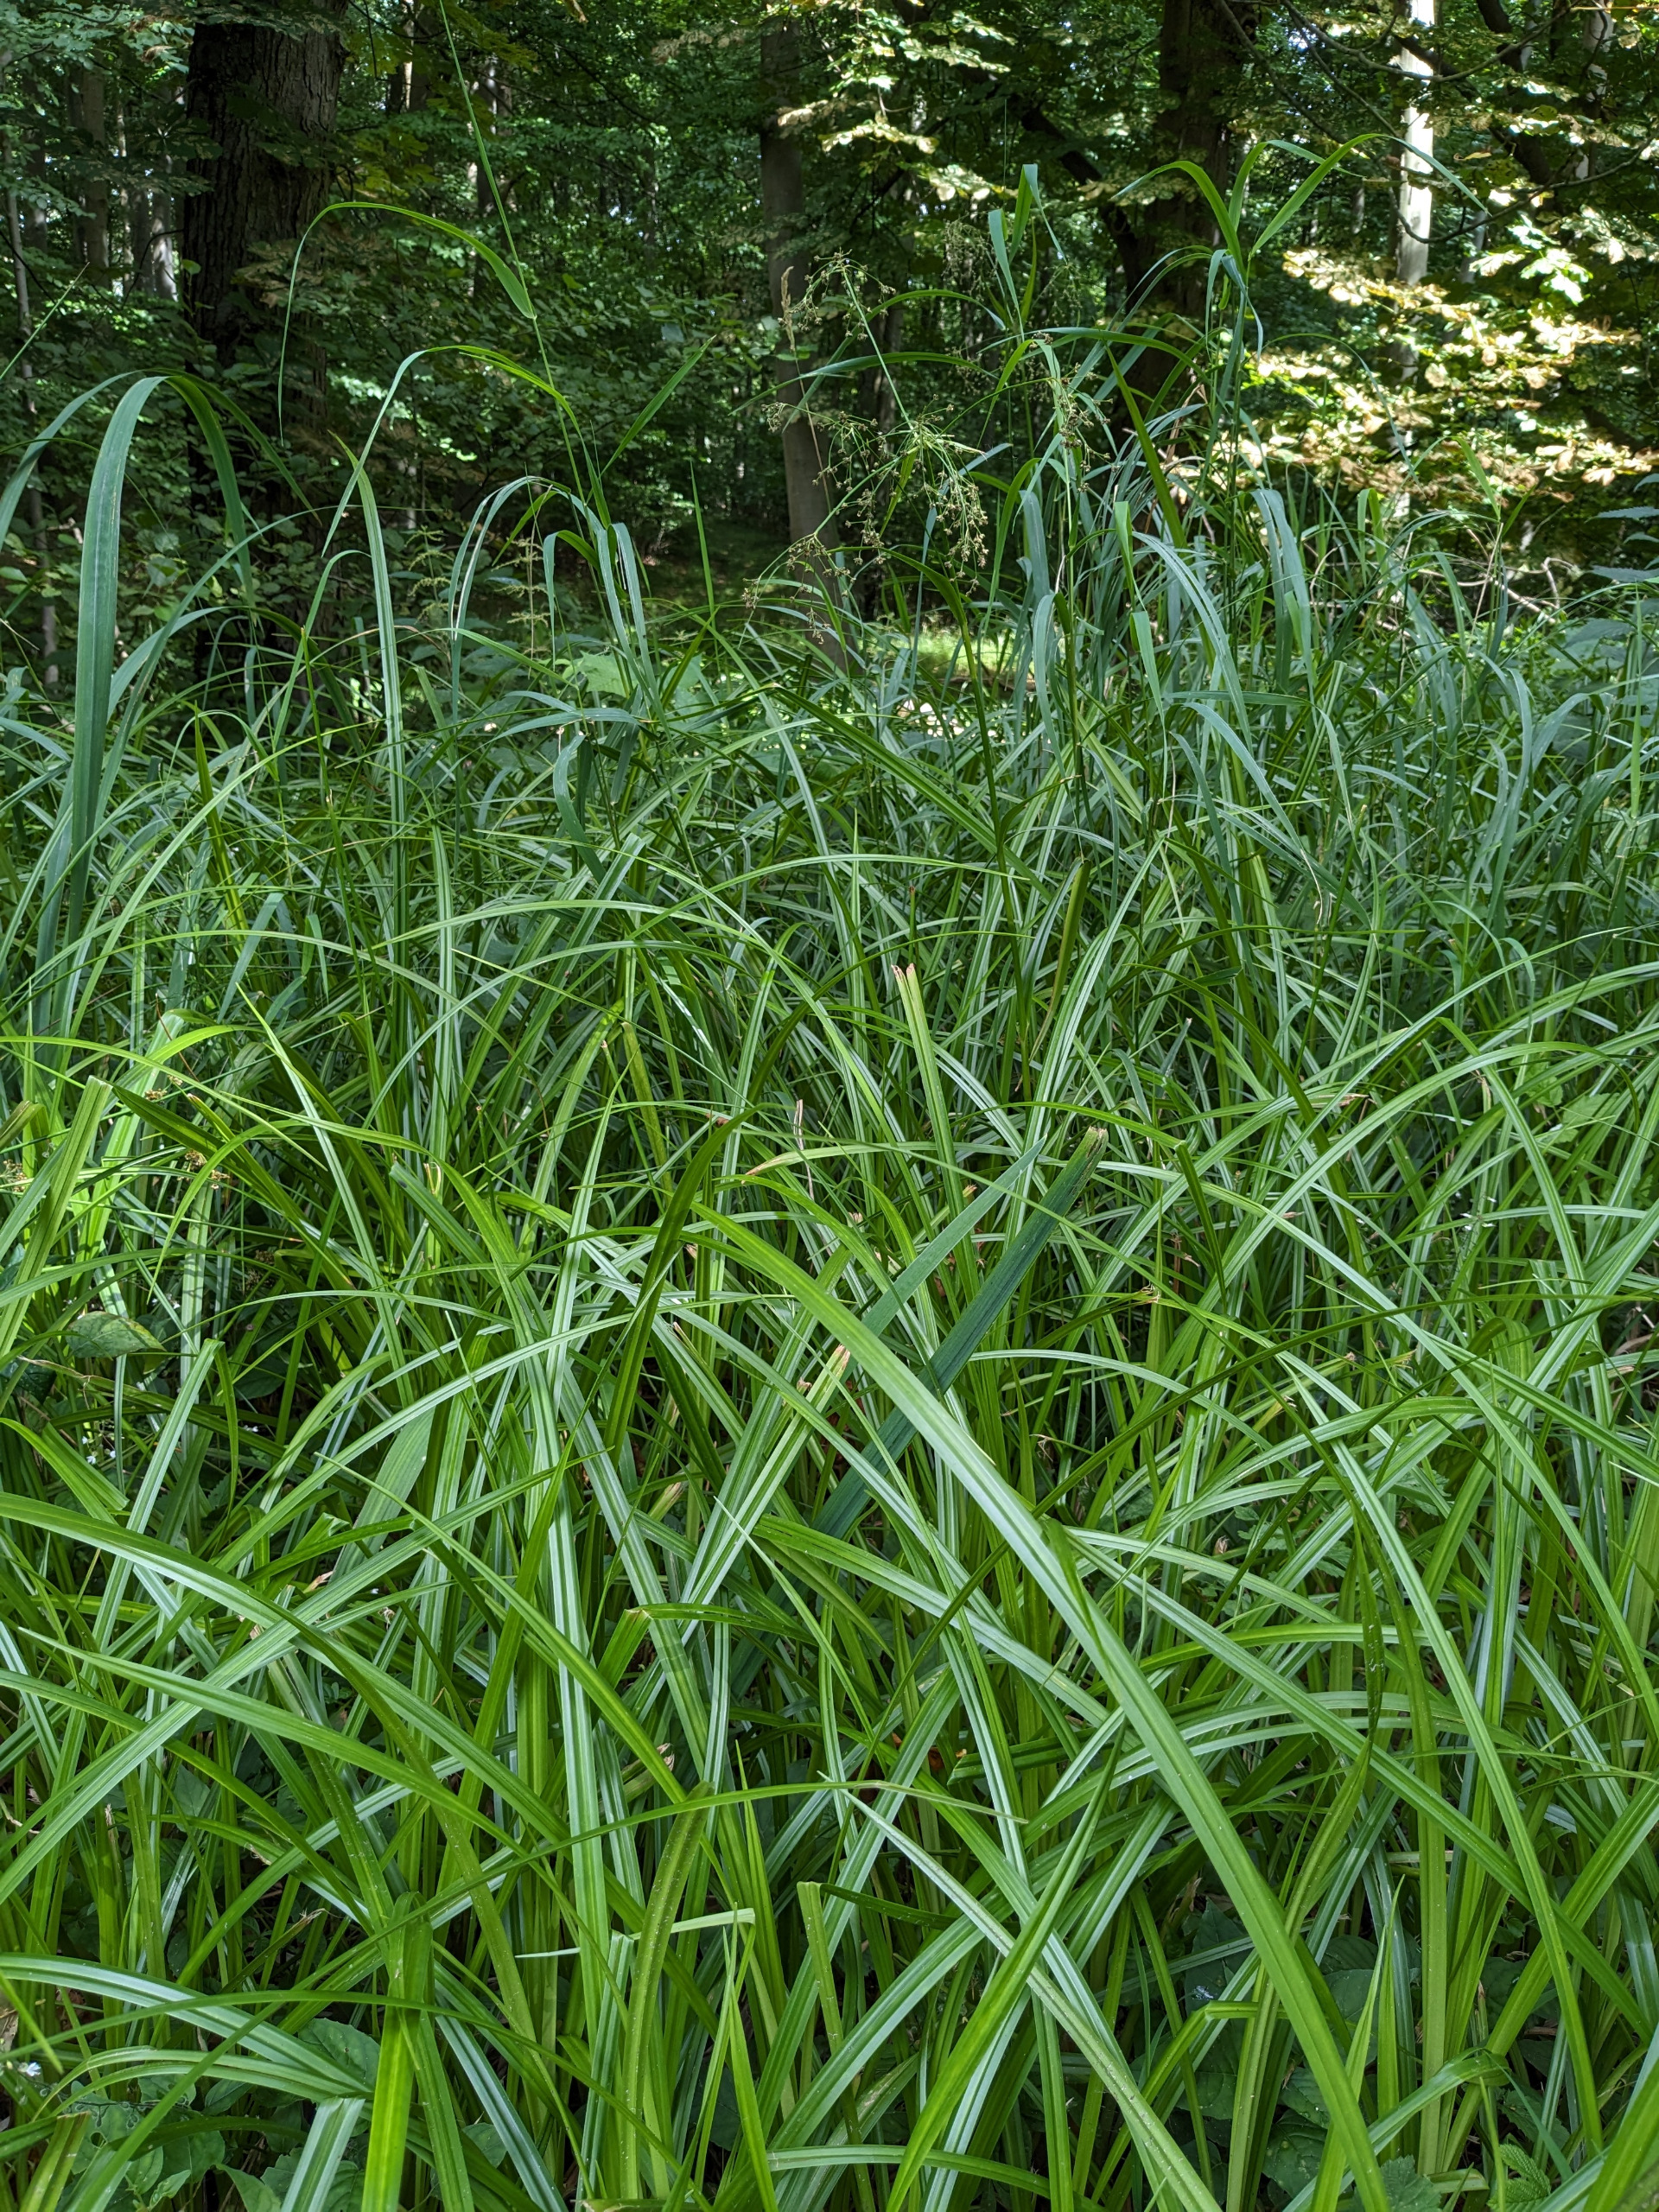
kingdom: Plantae
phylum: Tracheophyta
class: Liliopsida
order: Poales
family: Cyperaceae
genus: Scirpus
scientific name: Scirpus sylvaticus
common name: Skov-kogleaks
